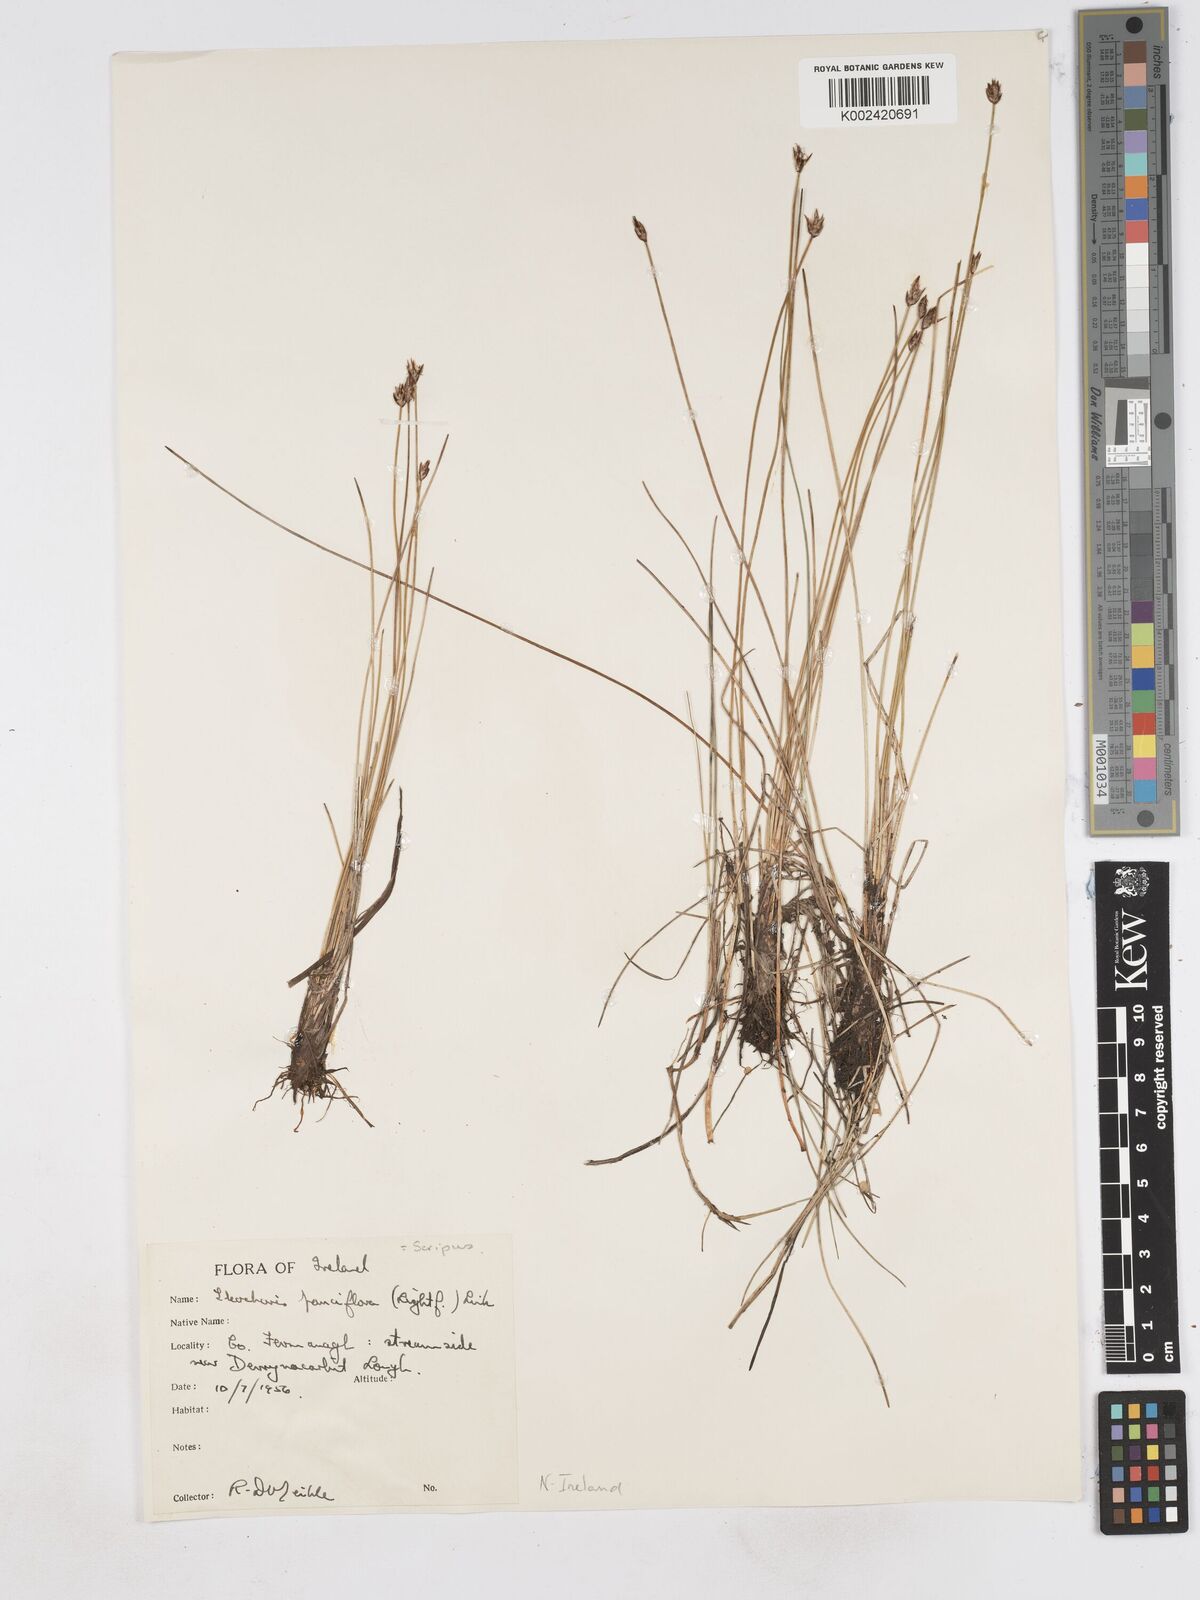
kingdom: Plantae
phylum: Tracheophyta
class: Liliopsida
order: Poales
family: Cyperaceae
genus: Eleocharis
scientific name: Eleocharis quinqueflora
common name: Few-flowered spike-rush
